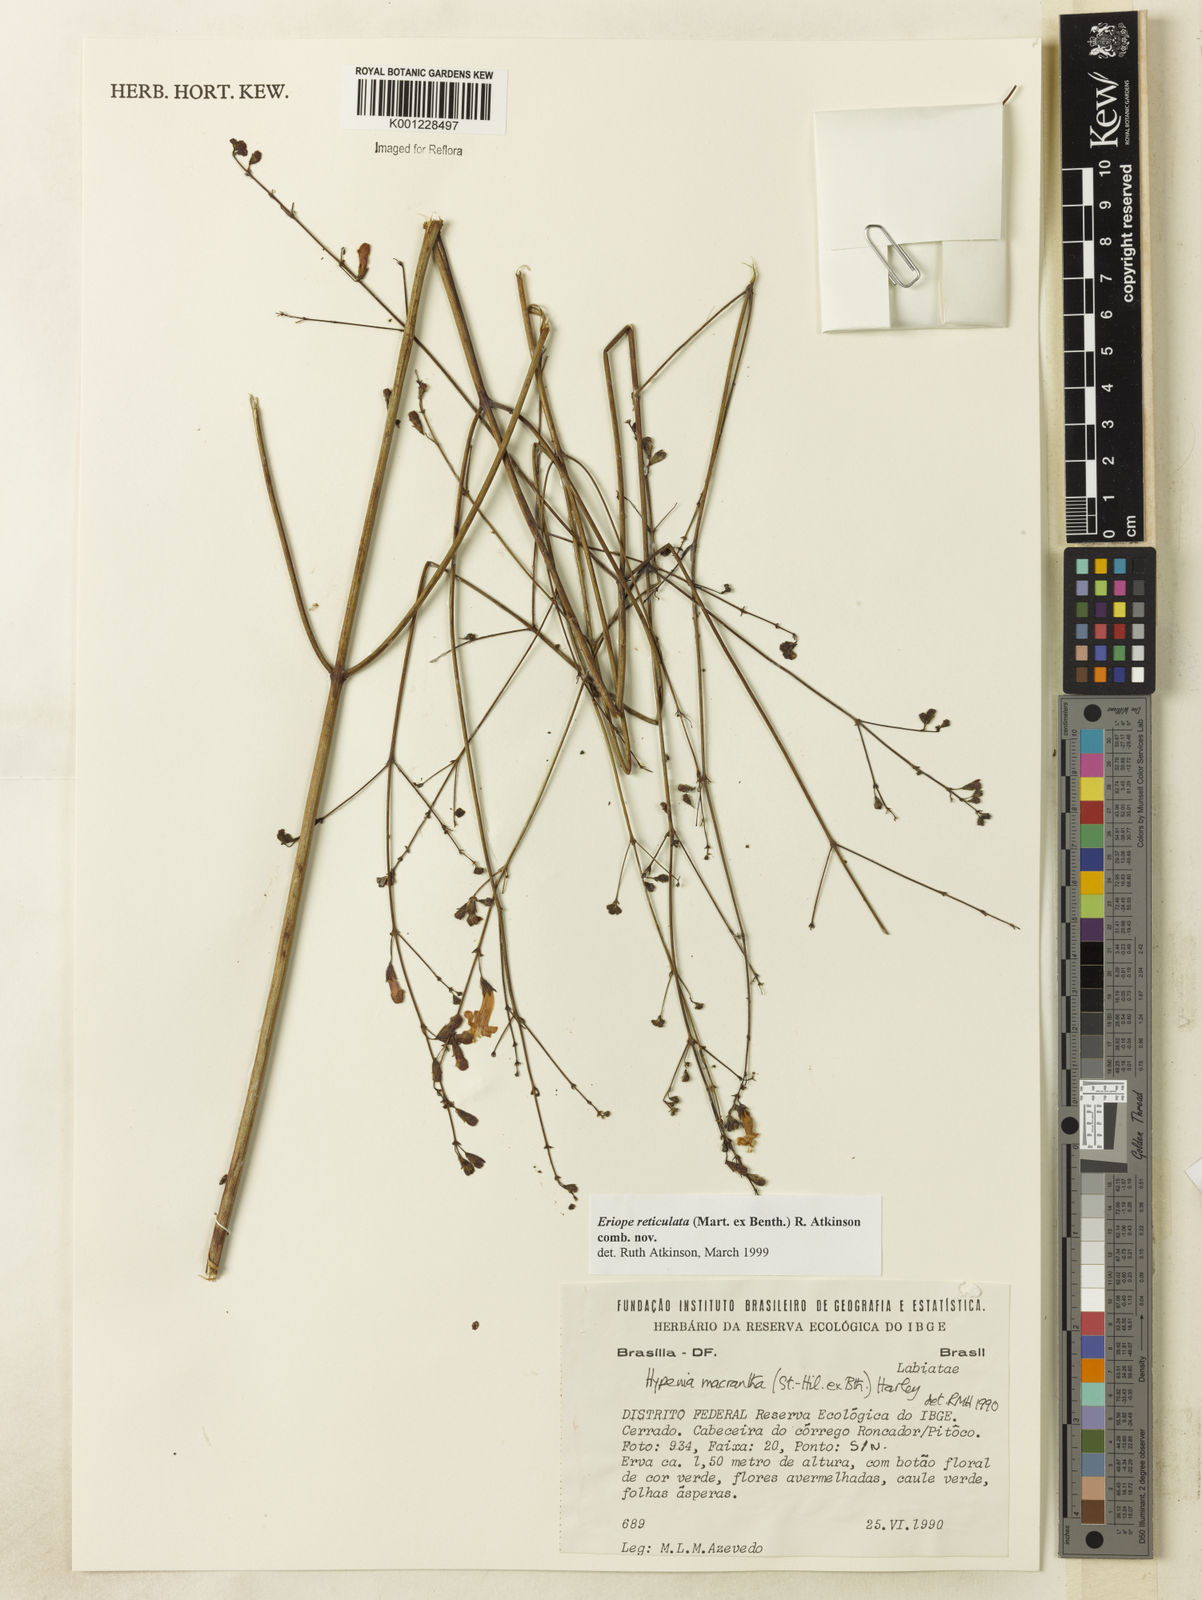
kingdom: Plantae
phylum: Tracheophyta
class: Magnoliopsida
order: Lamiales
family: Lamiaceae
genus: Hypenia
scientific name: Hypenia reticulata
